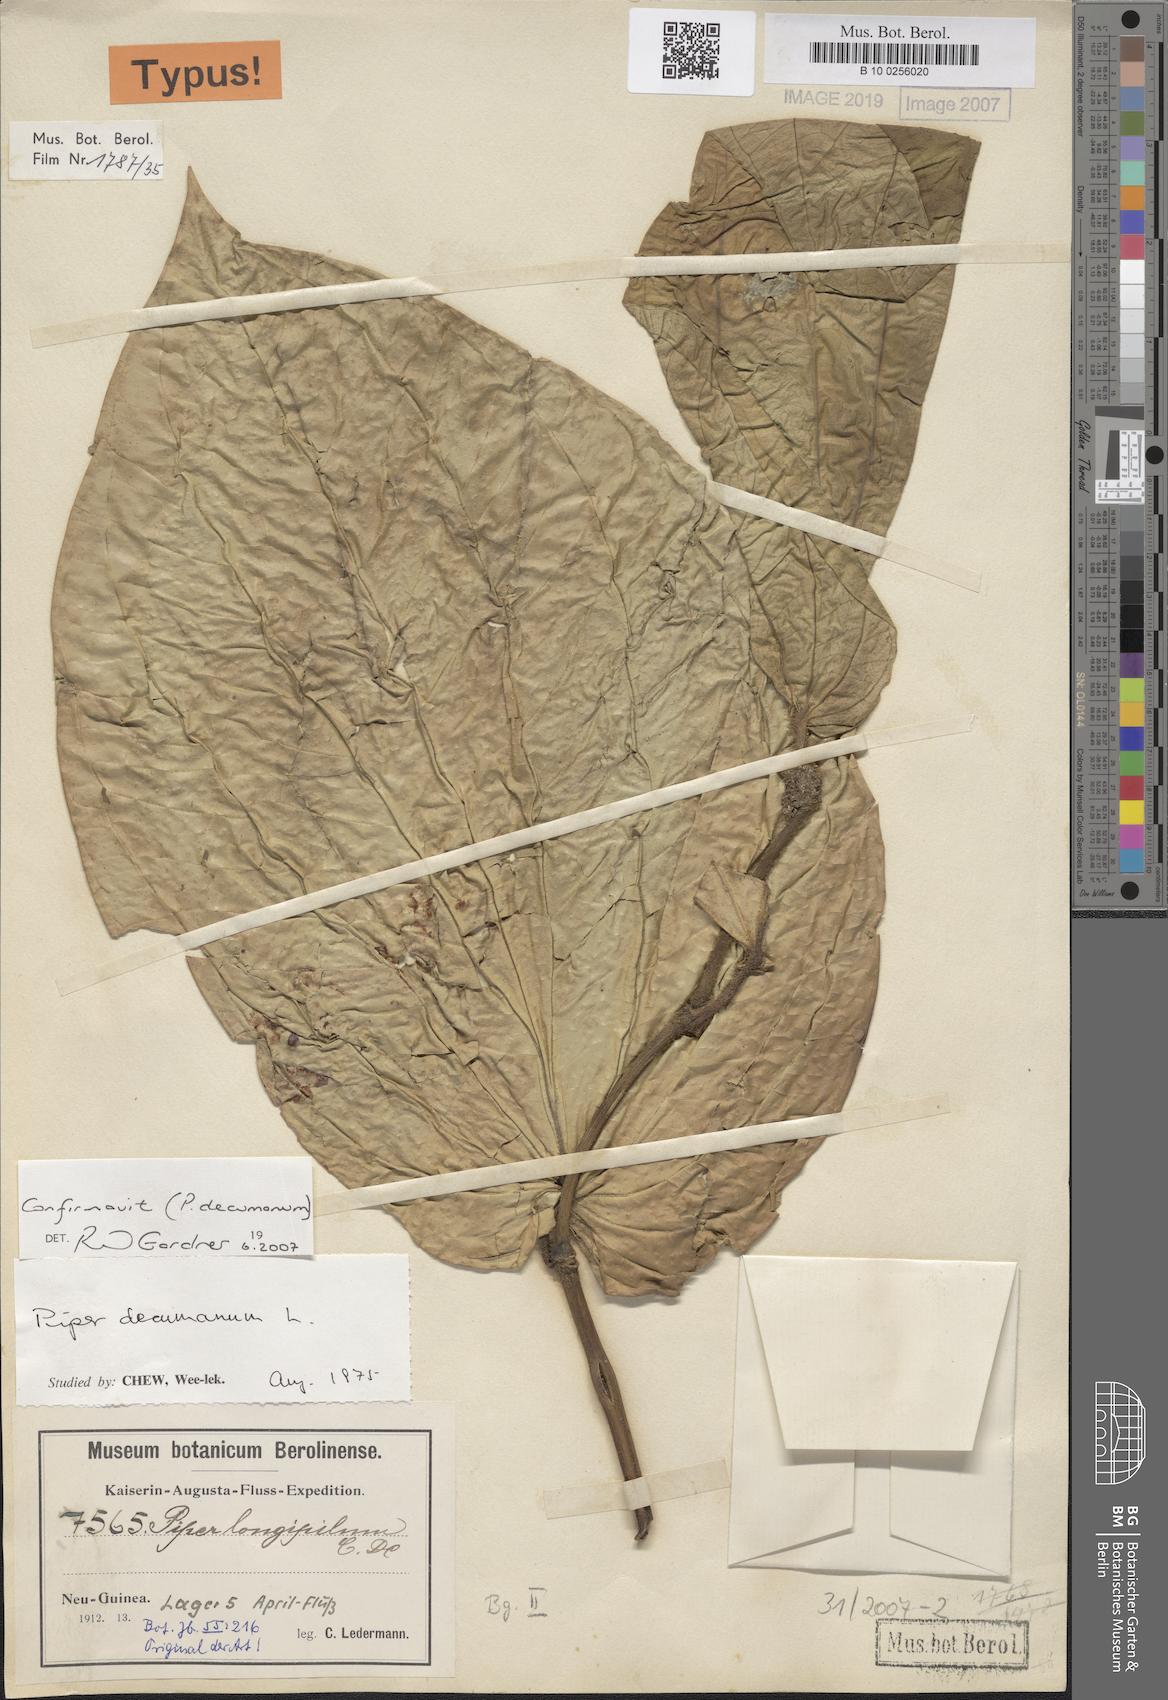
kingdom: Plantae
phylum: Tracheophyta
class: Magnoliopsida
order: Piperales
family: Piperaceae
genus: Macropiper
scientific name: Macropiper methysticum
